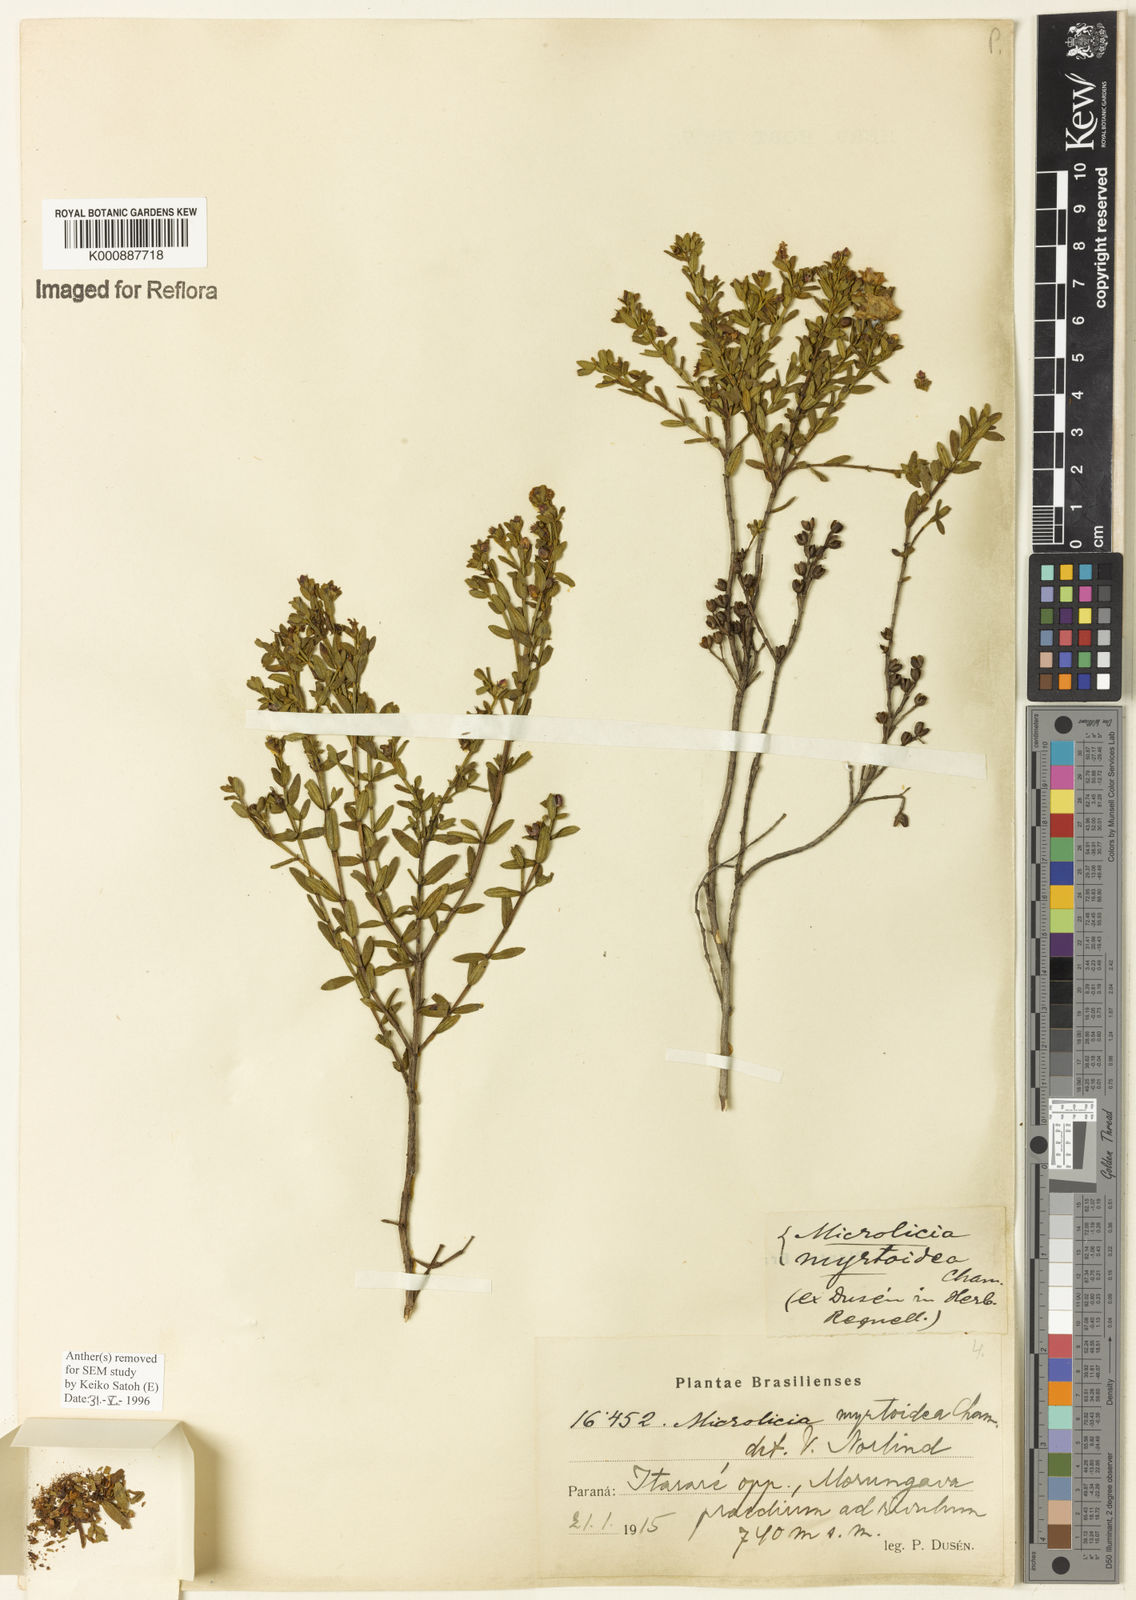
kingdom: Plantae
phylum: Tracheophyta
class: Magnoliopsida
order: Myrtales
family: Melastomataceae
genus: Microlicia
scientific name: Microlicia myrtoidea
